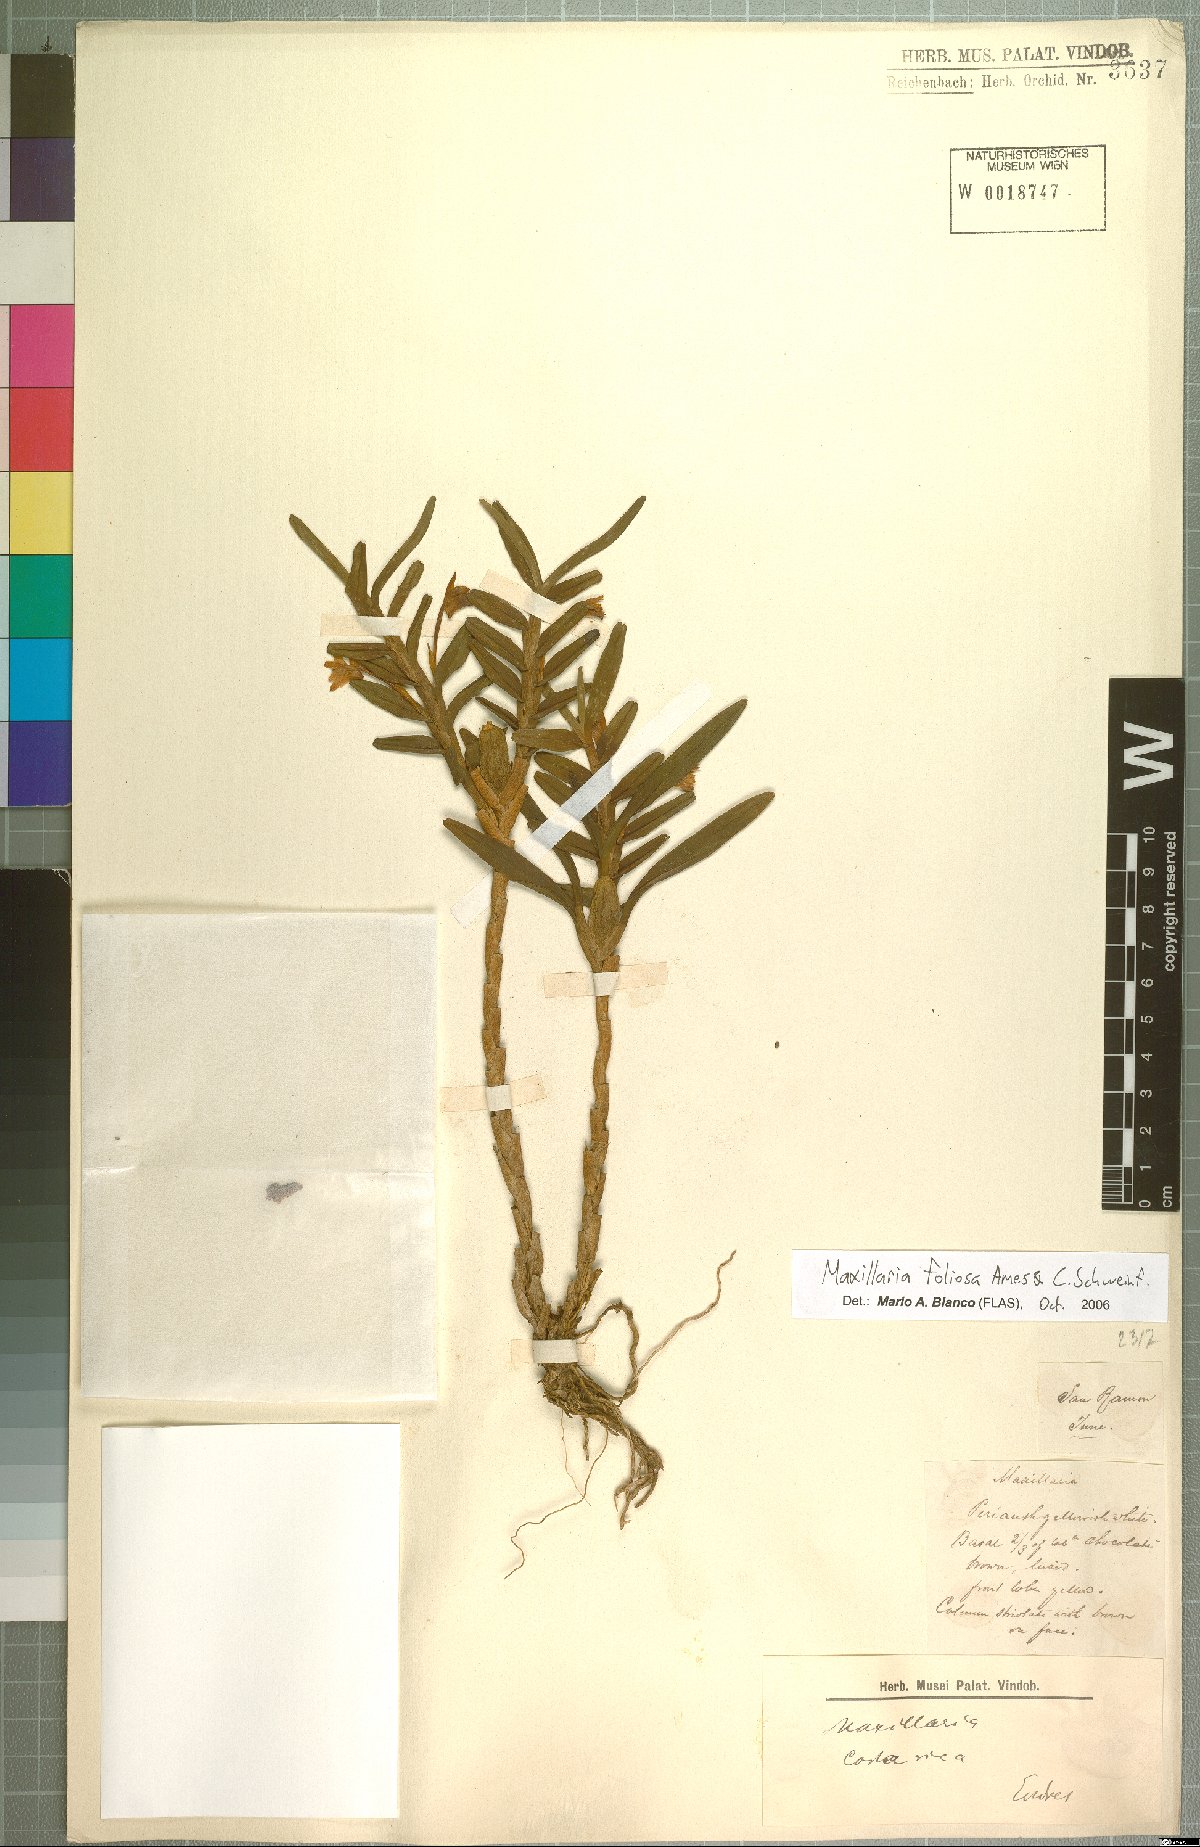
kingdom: Plantae
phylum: Tracheophyta
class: Liliopsida
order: Asparagales
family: Orchidaceae
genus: Maxillaria
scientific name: Maxillaria foliosa
